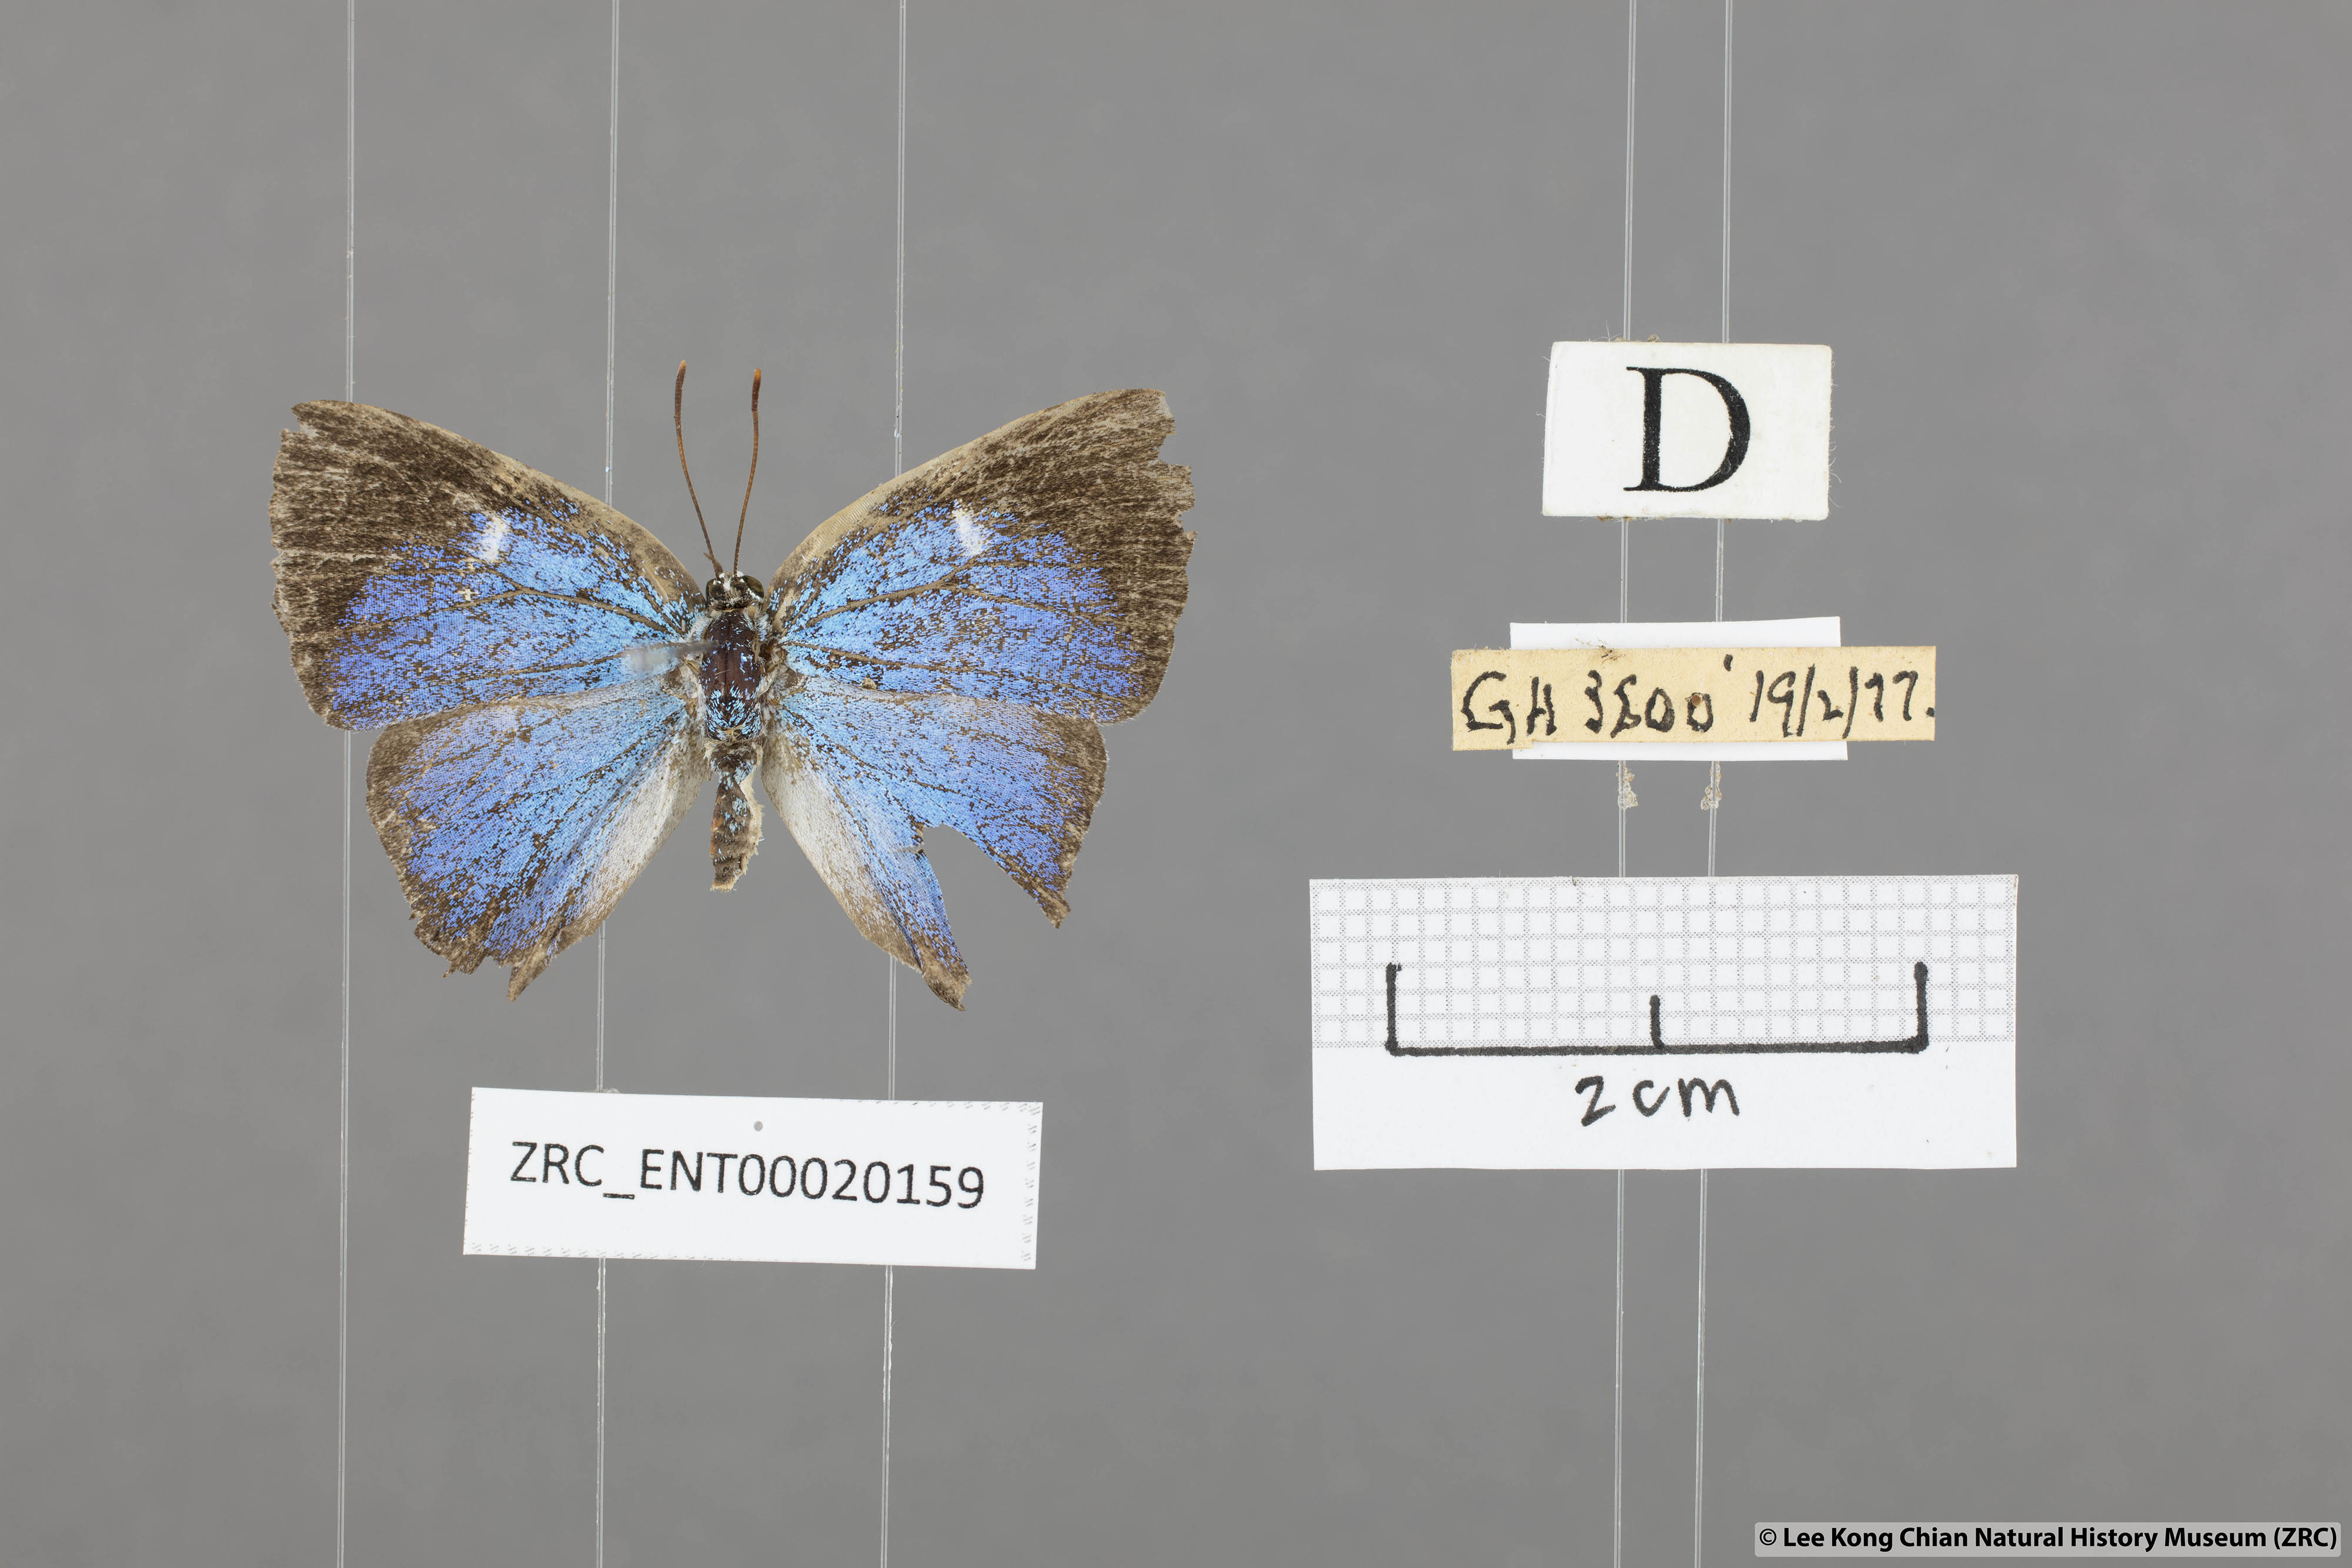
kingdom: Animalia
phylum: Arthropoda
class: Insecta
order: Lepidoptera
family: Lycaenidae
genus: Dacalana
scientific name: Dacalana
